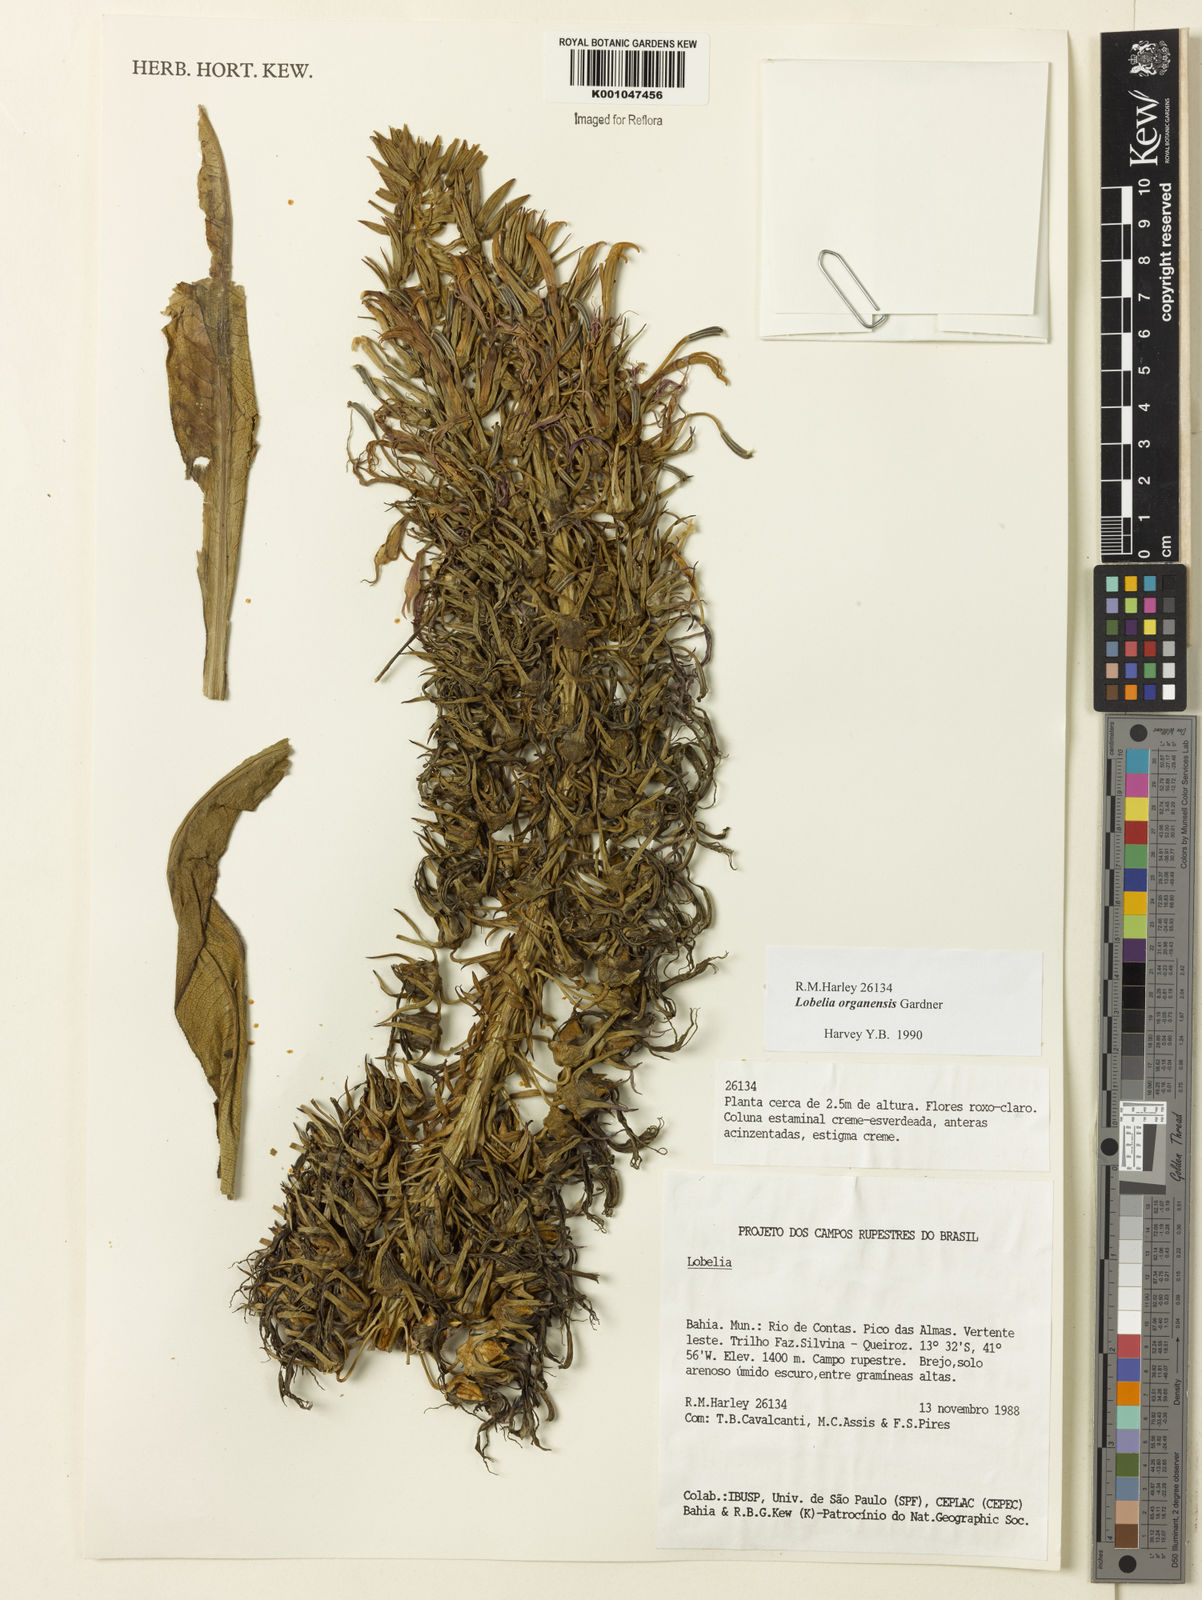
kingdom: Plantae
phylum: Tracheophyta
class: Magnoliopsida
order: Asterales
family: Campanulaceae
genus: Lobelia
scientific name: Lobelia organensis
